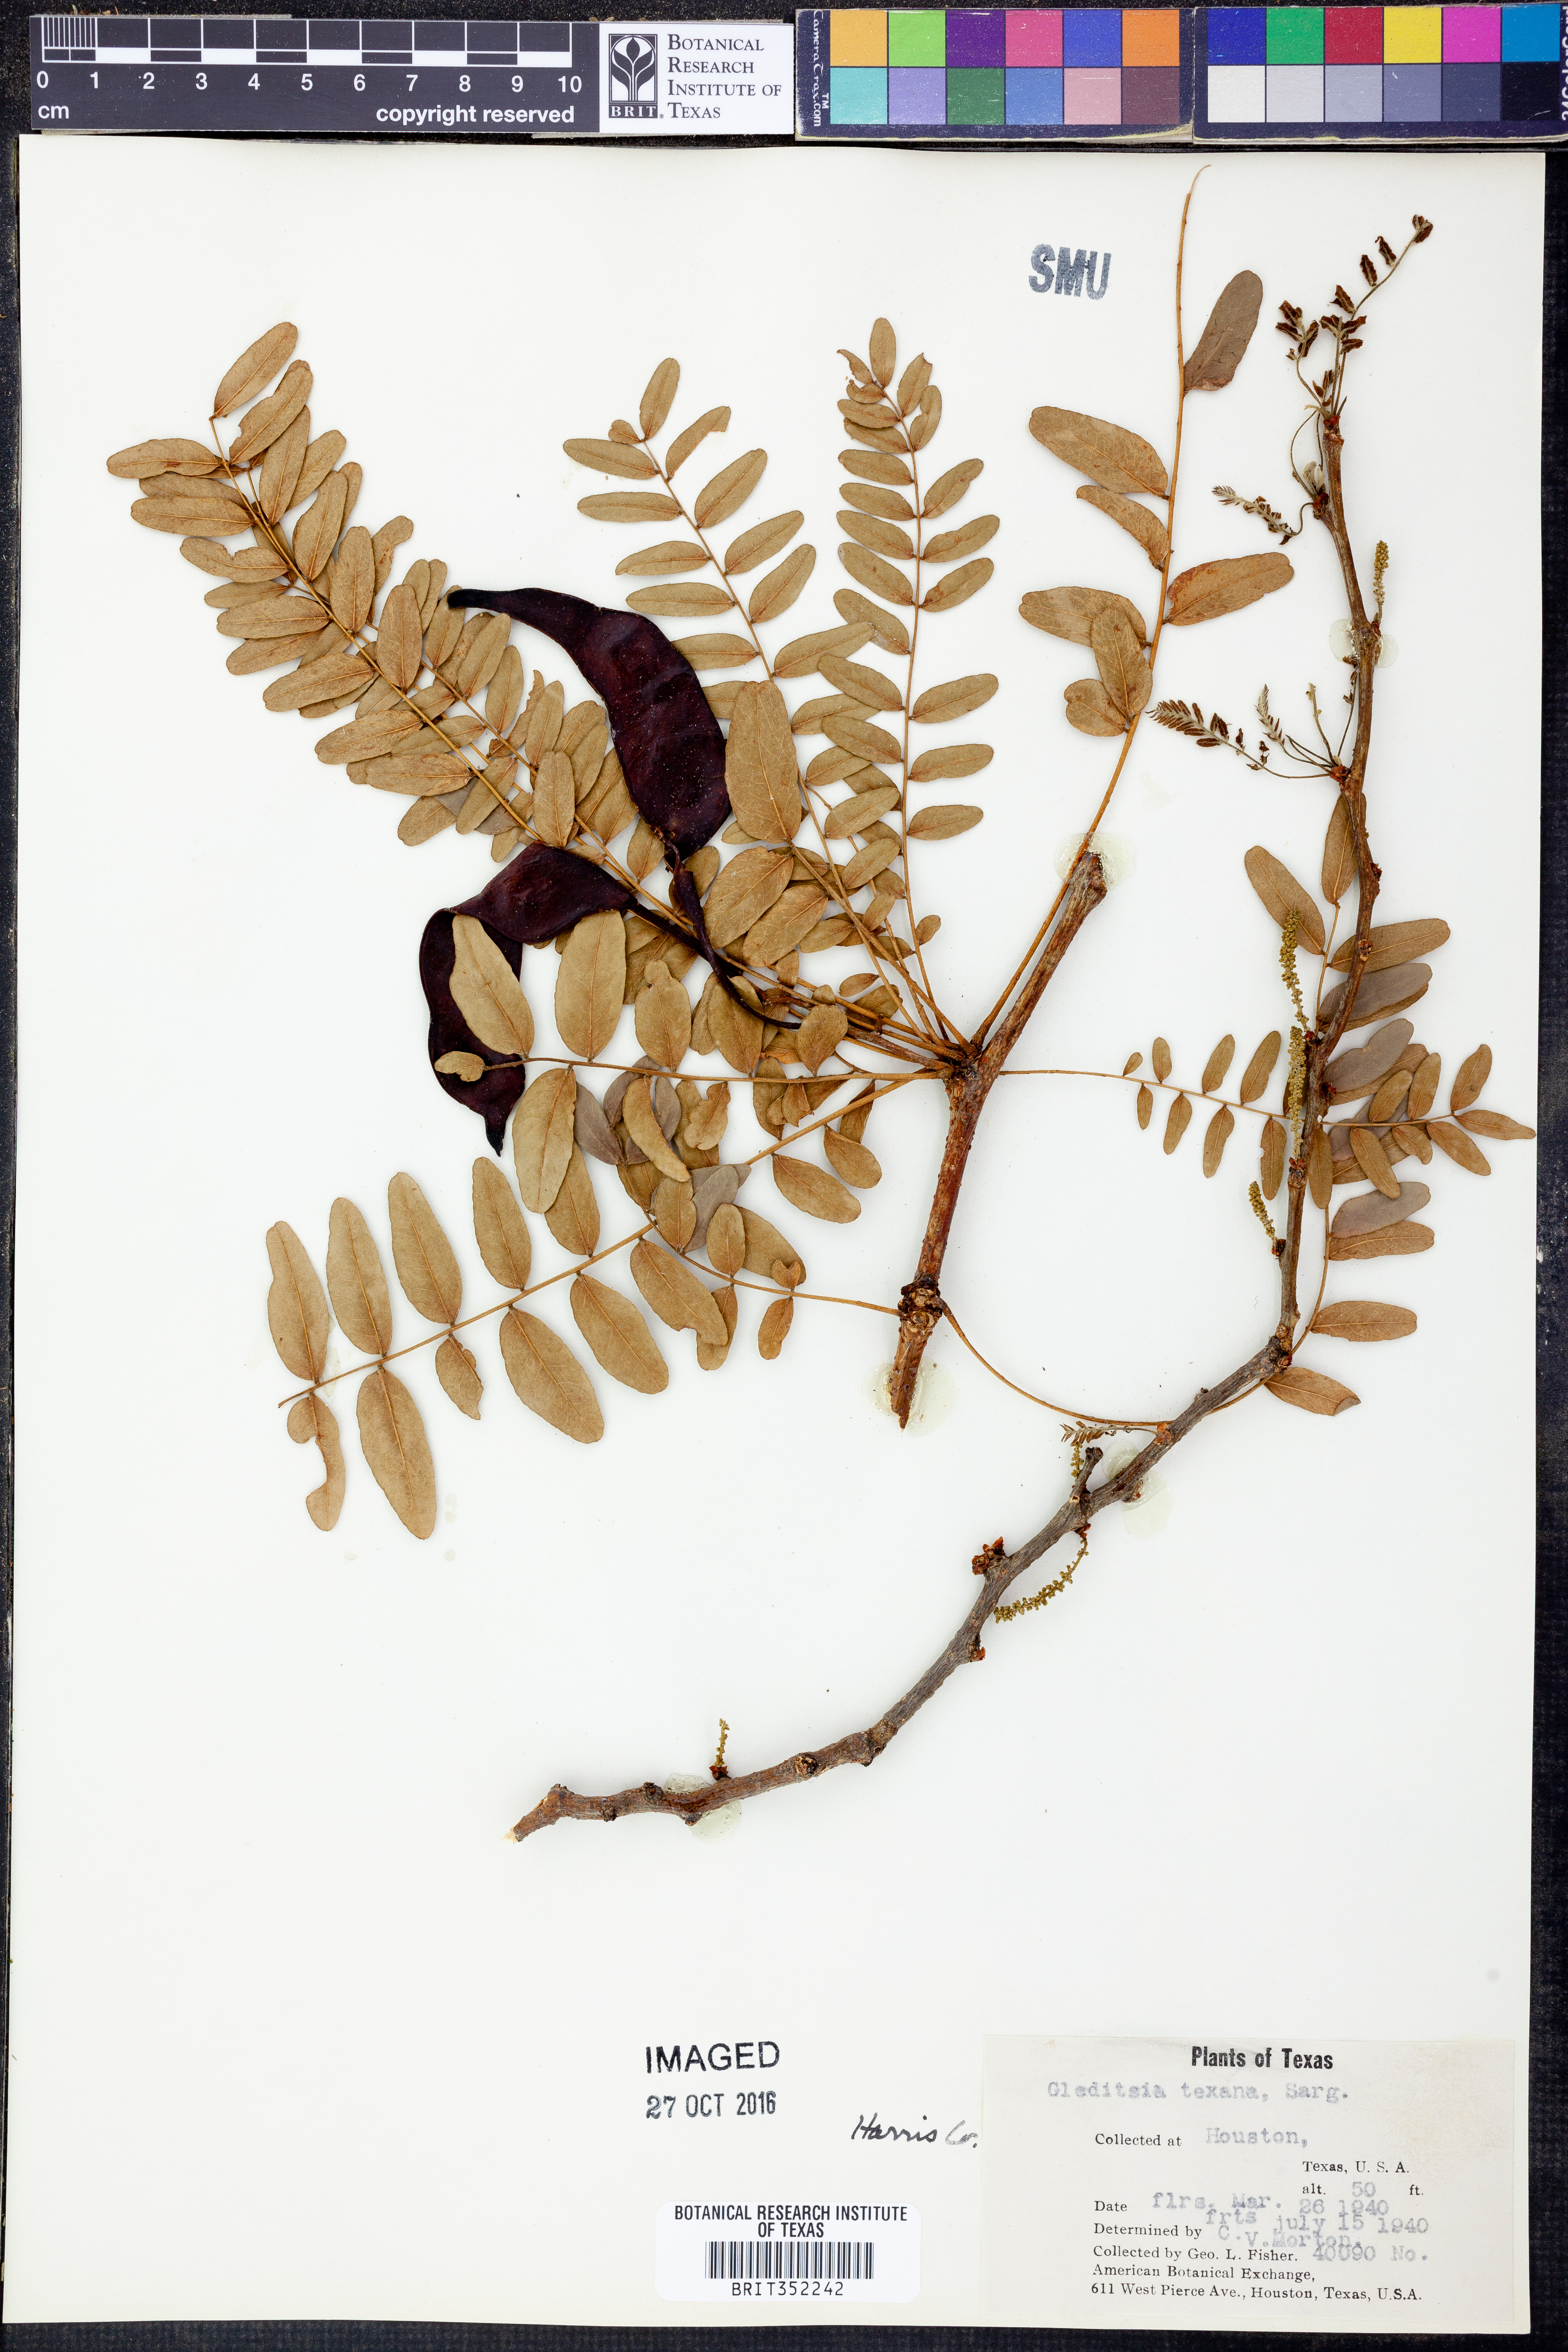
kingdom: Plantae
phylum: Tracheophyta
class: Magnoliopsida
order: Fabales
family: Fabaceae
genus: Gleditsia
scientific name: Gleditsia texana
